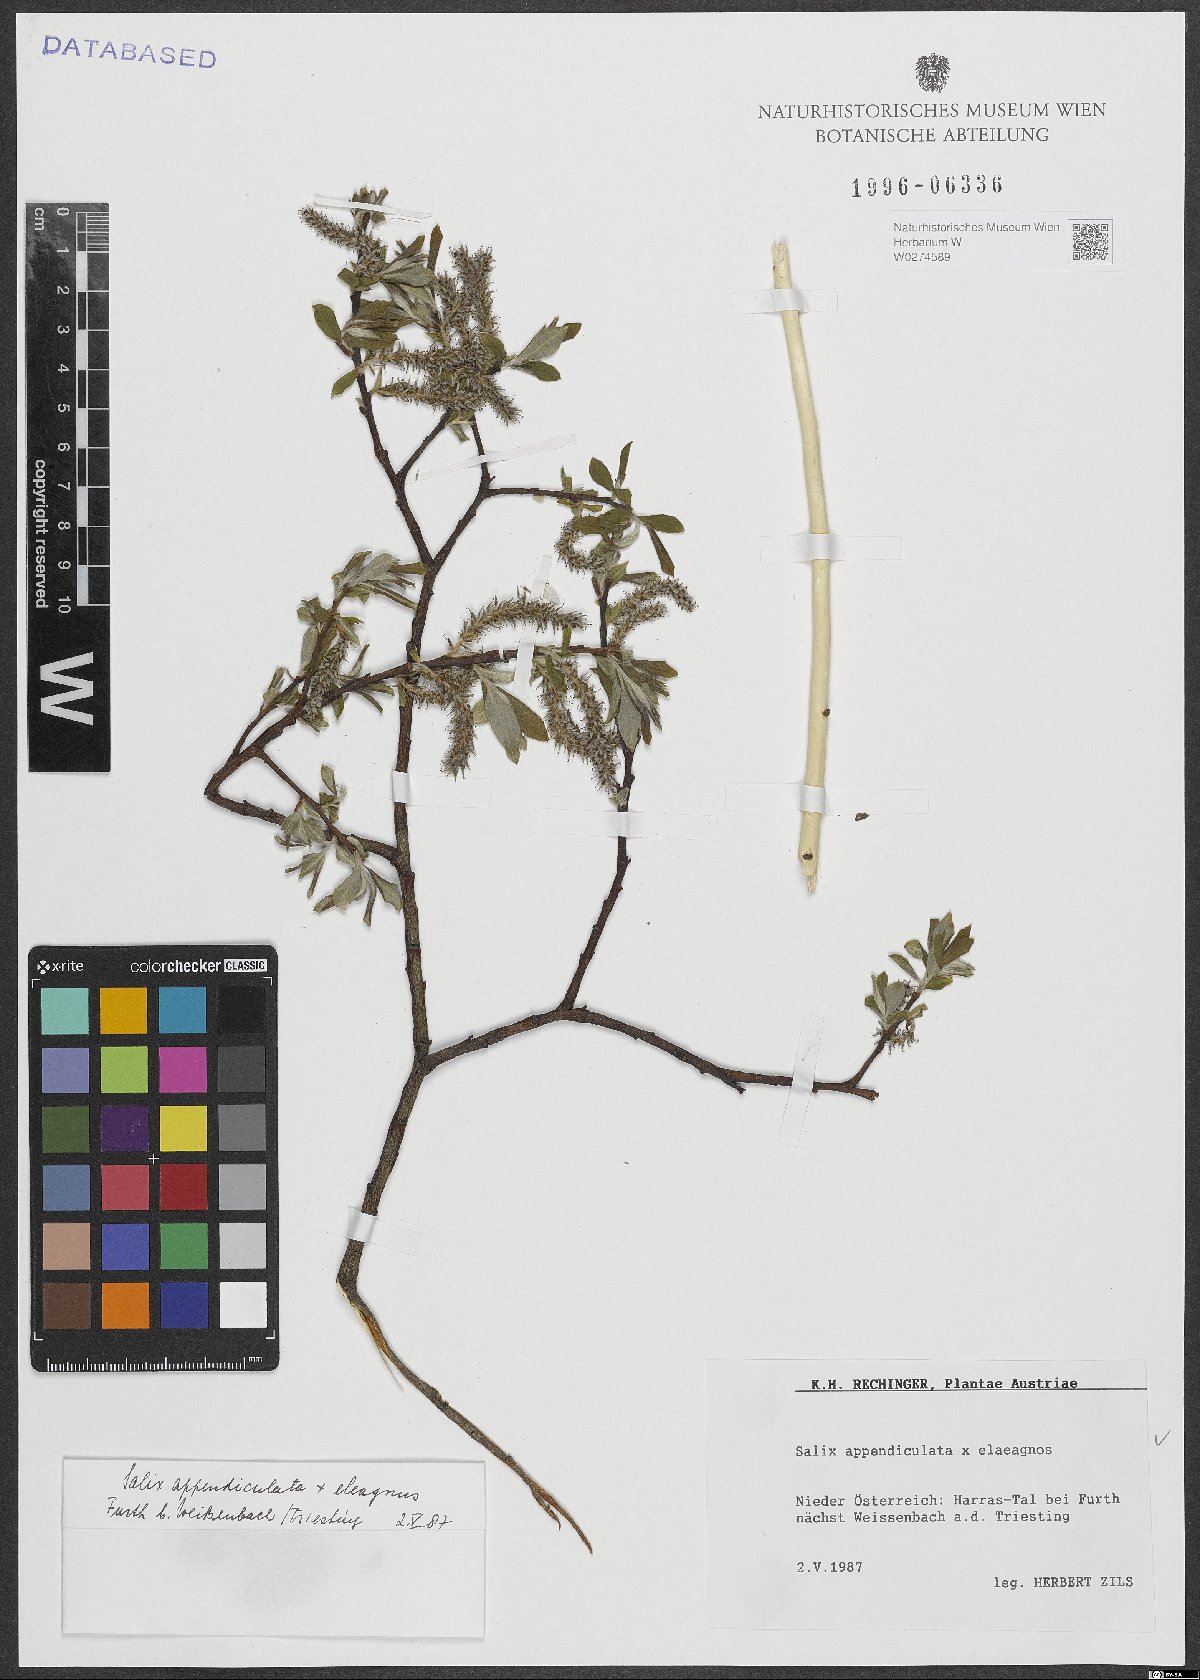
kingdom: Plantae
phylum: Tracheophyta
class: Magnoliopsida
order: Malpighiales
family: Salicaceae
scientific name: Salicaceae
